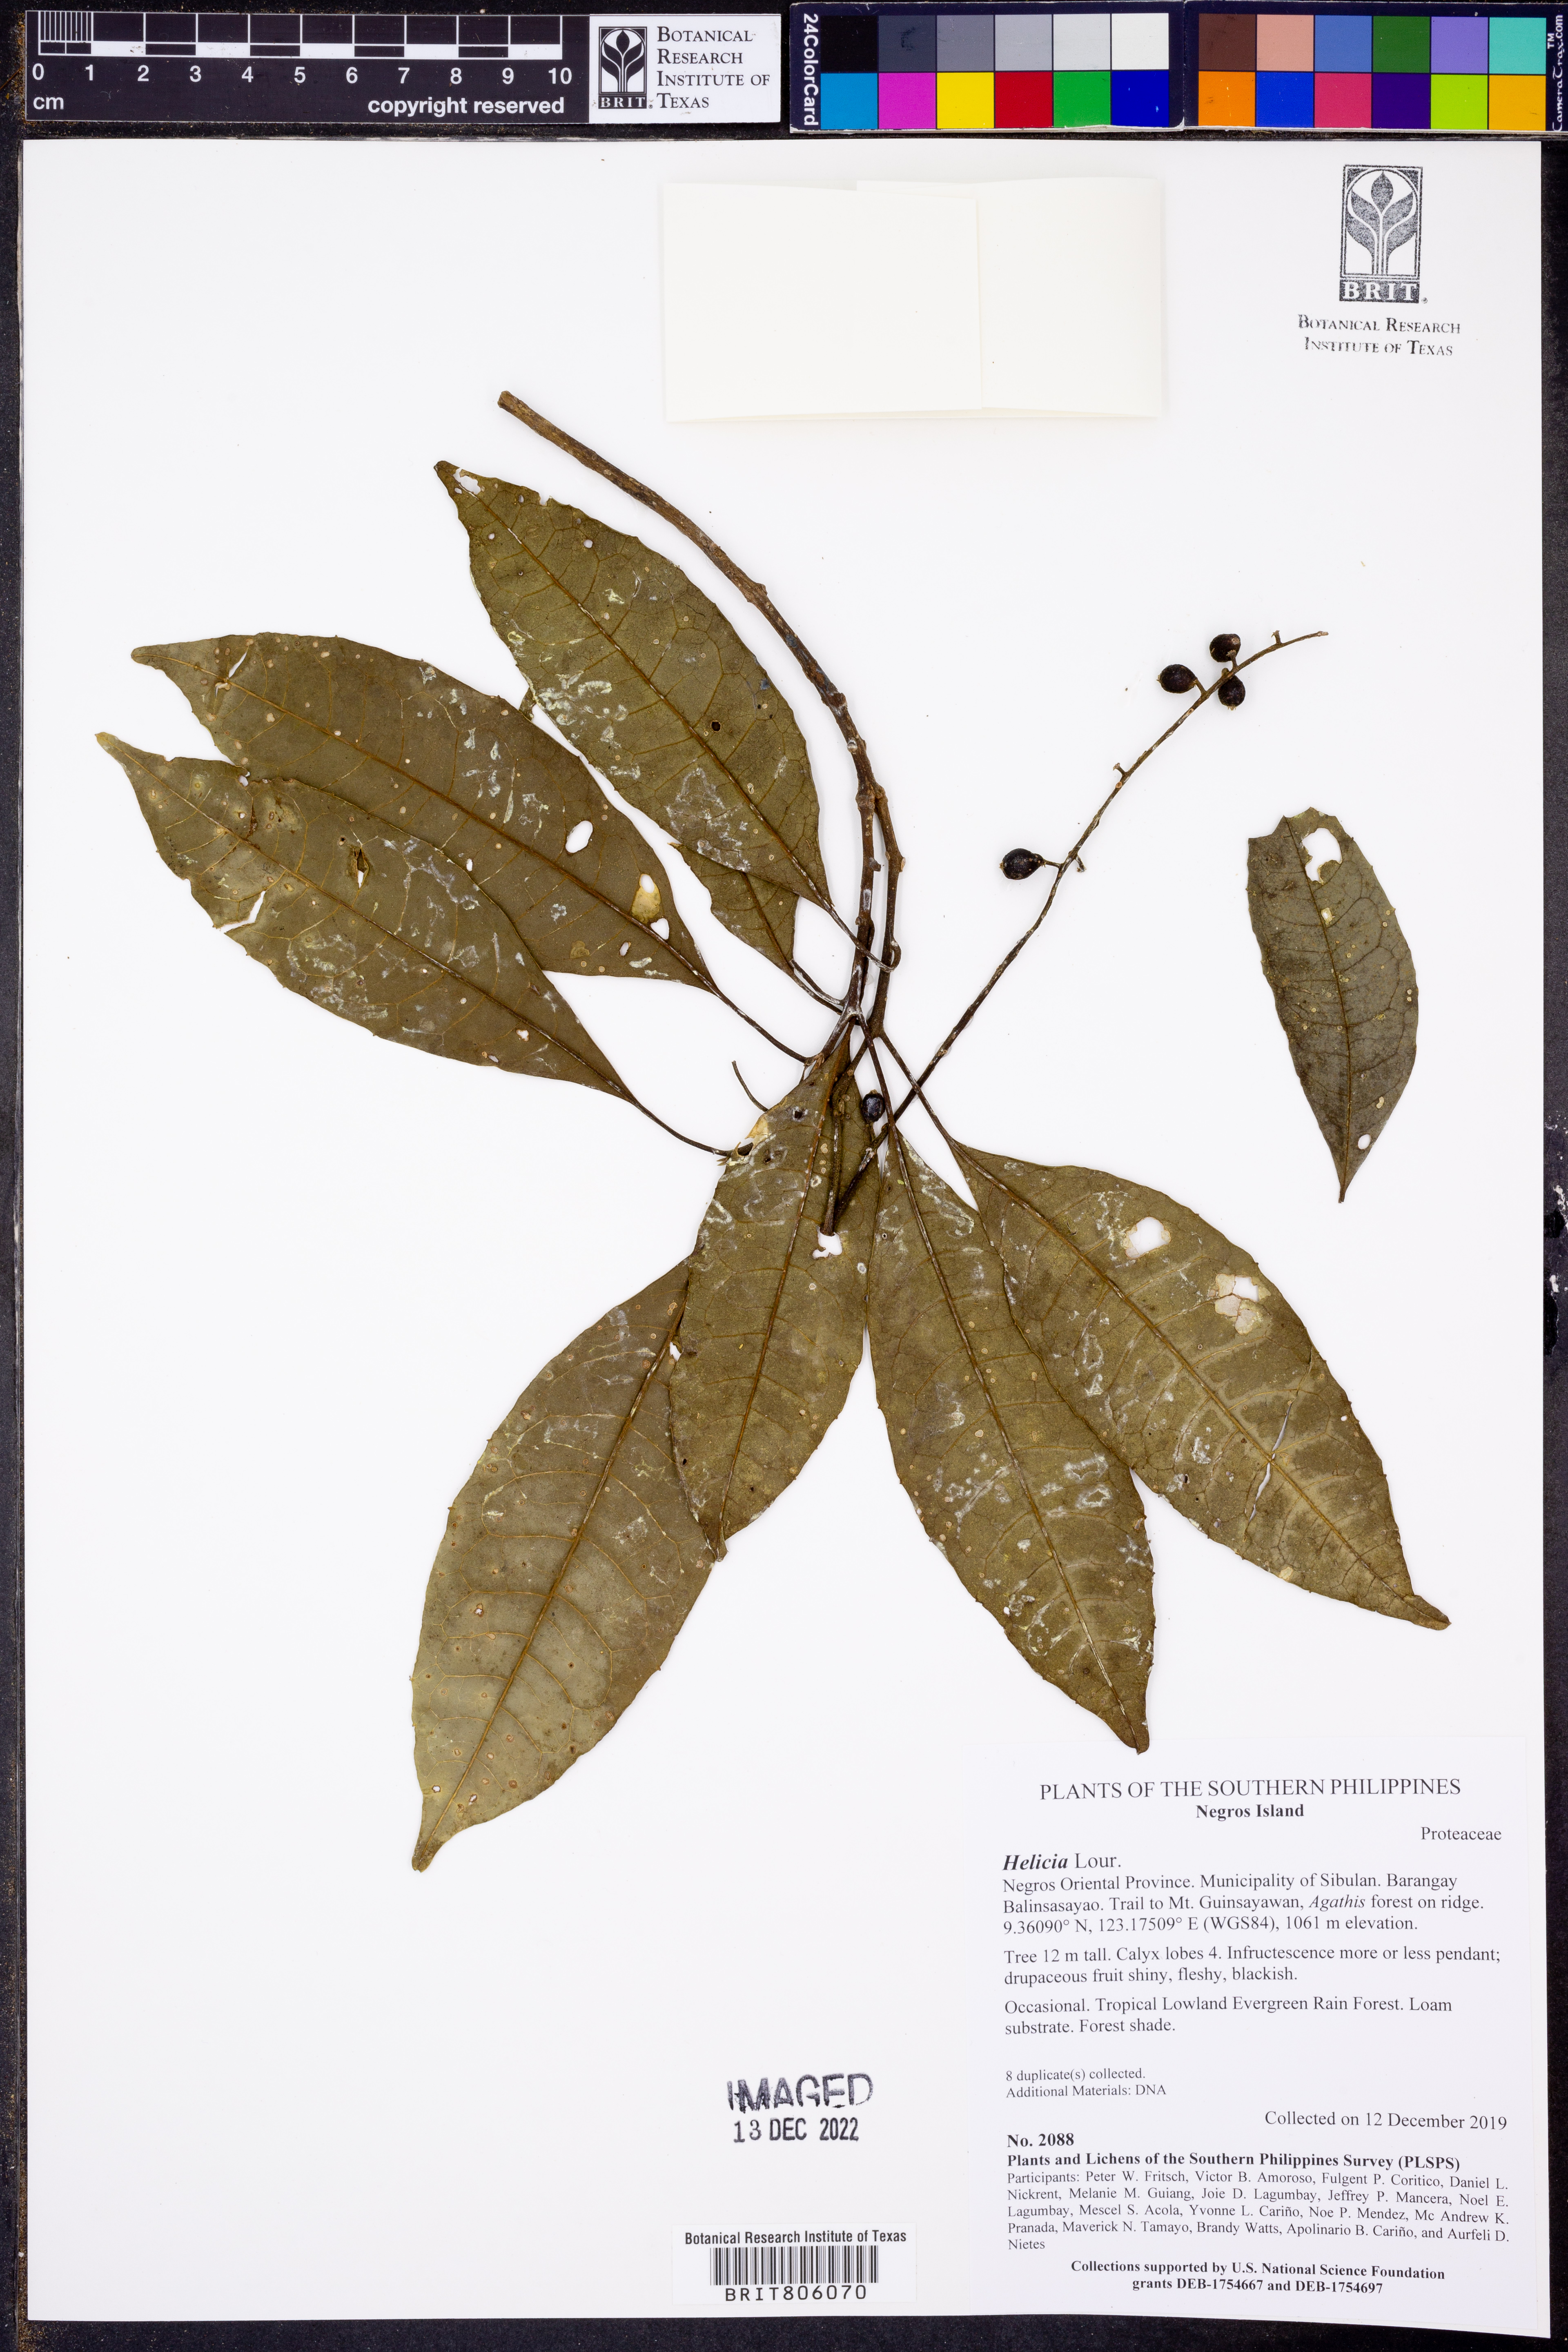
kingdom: Plantae
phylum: Tracheophyta
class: Magnoliopsida
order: Proteales
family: Proteaceae
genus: Helicia
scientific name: Helicia
